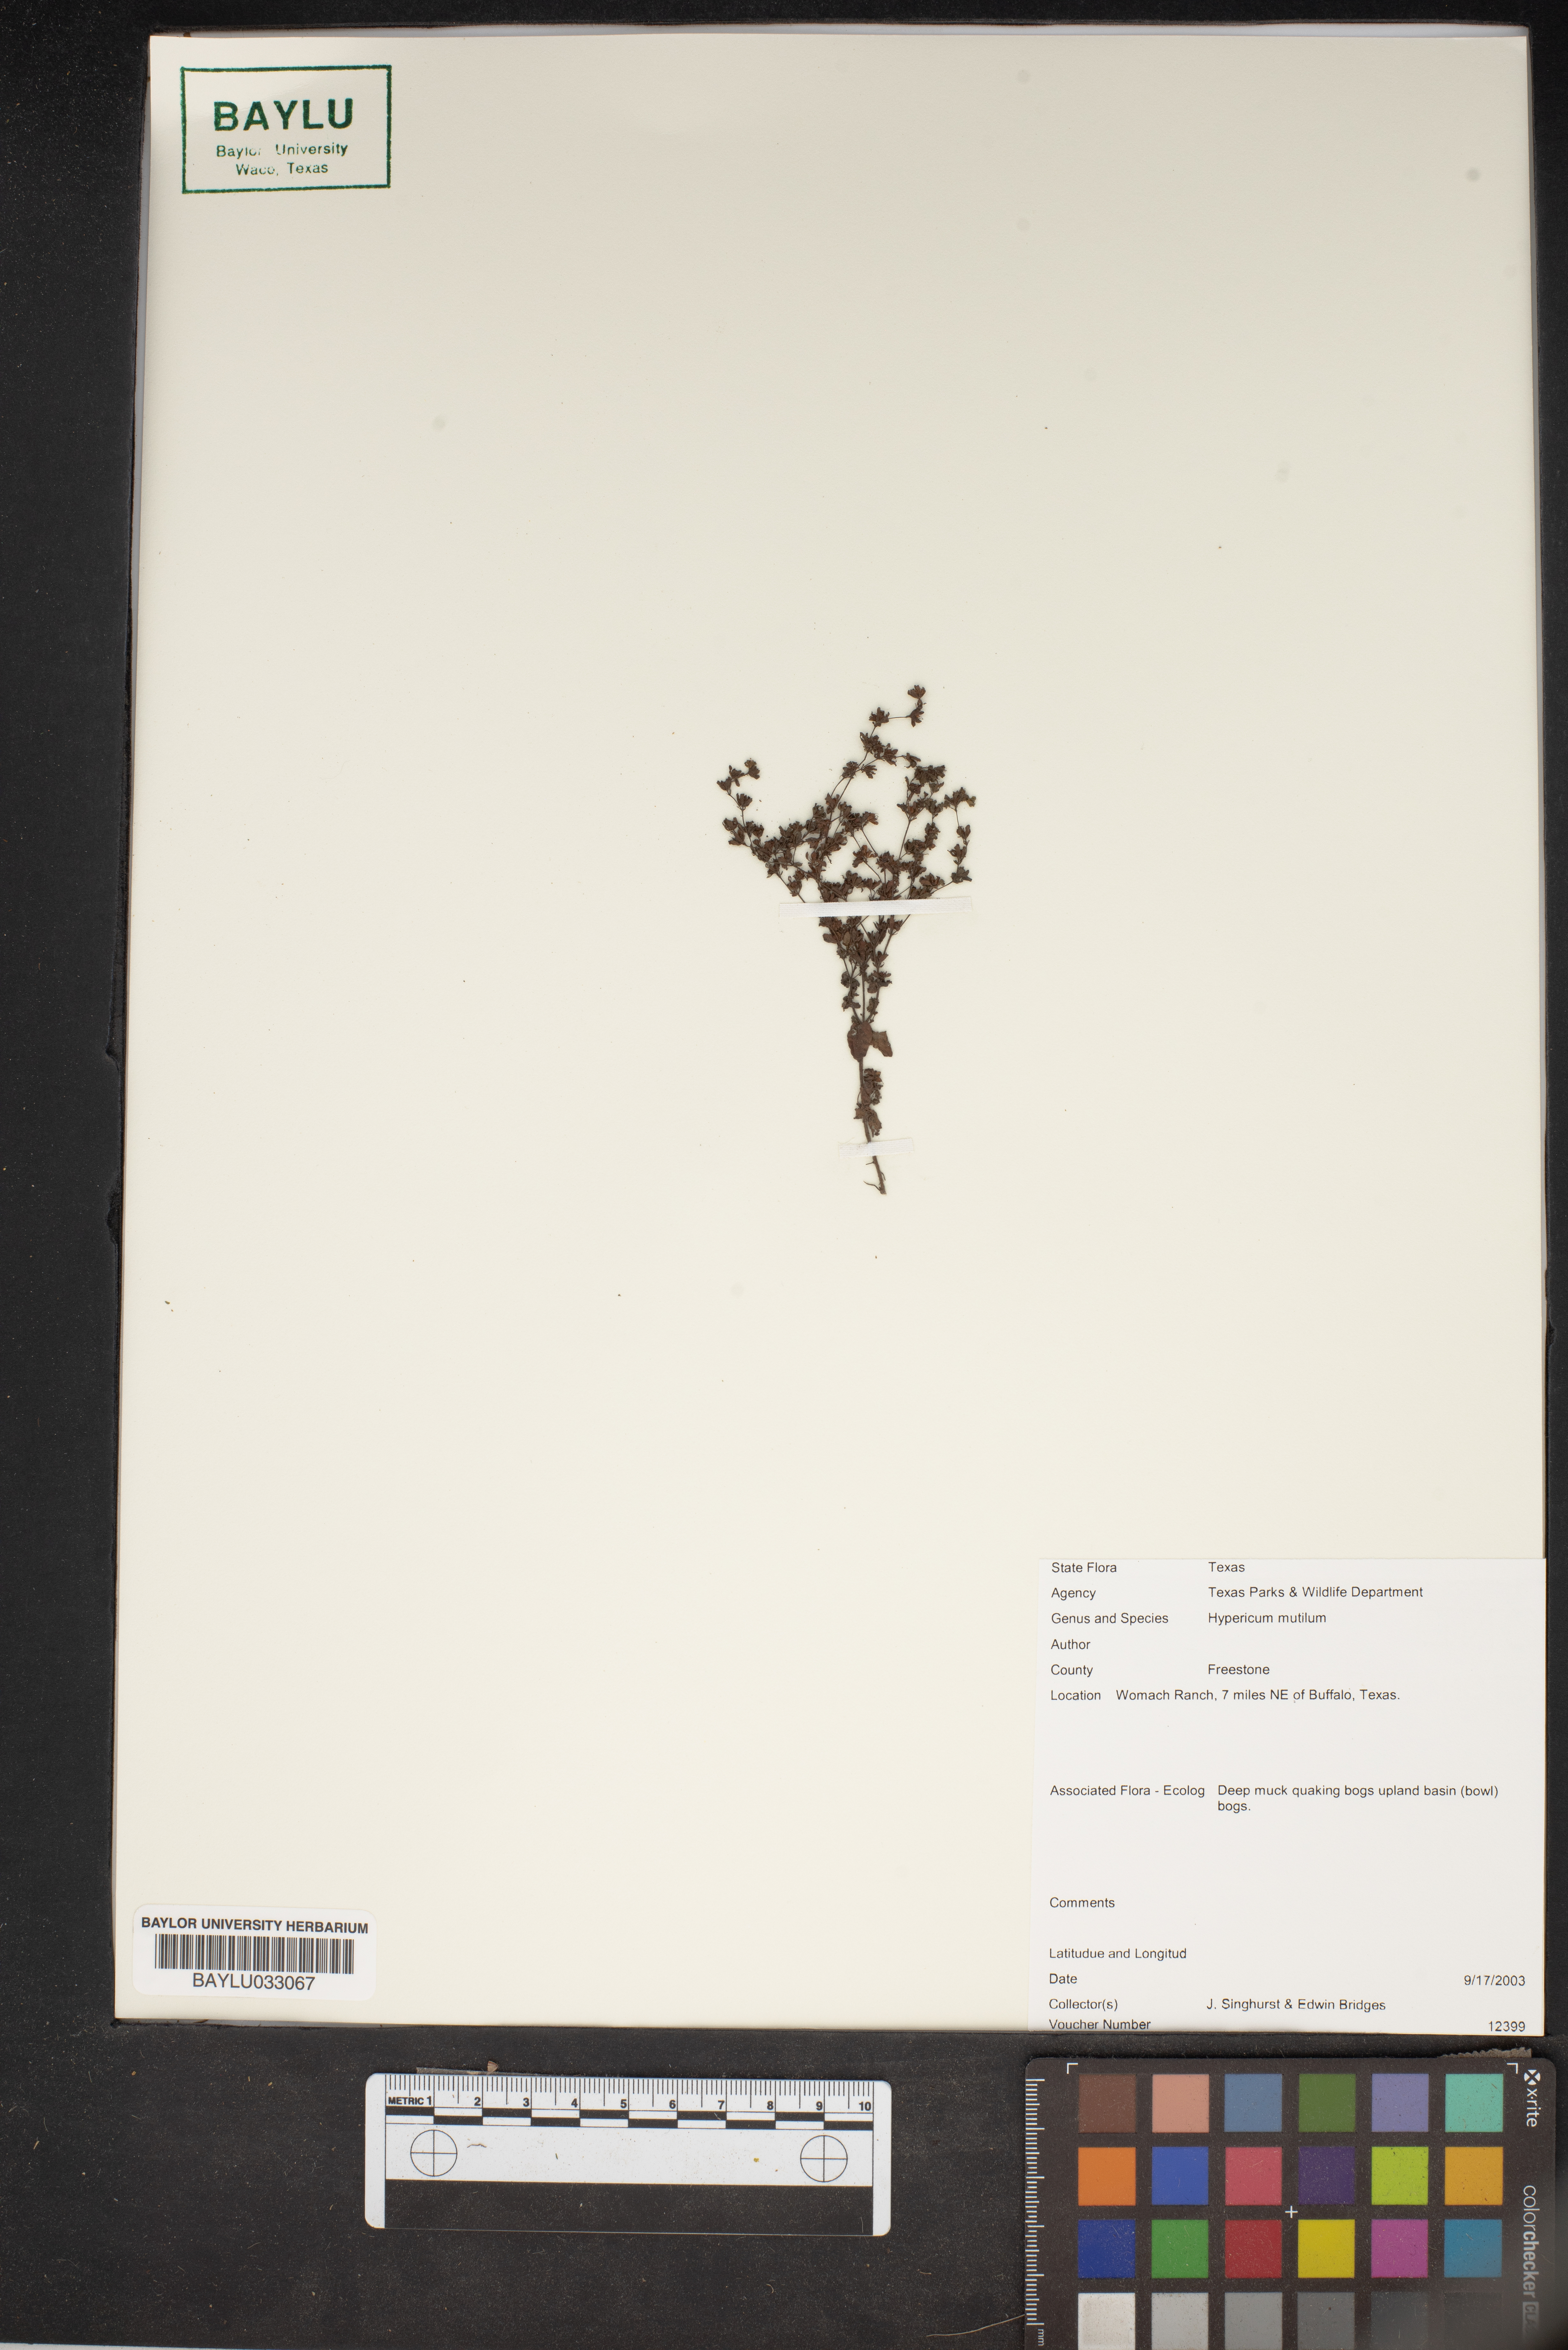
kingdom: Plantae
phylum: Tracheophyta
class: Magnoliopsida
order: Malpighiales
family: Hypericaceae
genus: Hypericum
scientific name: Hypericum mutilum
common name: Dwarf st. john's-wort
